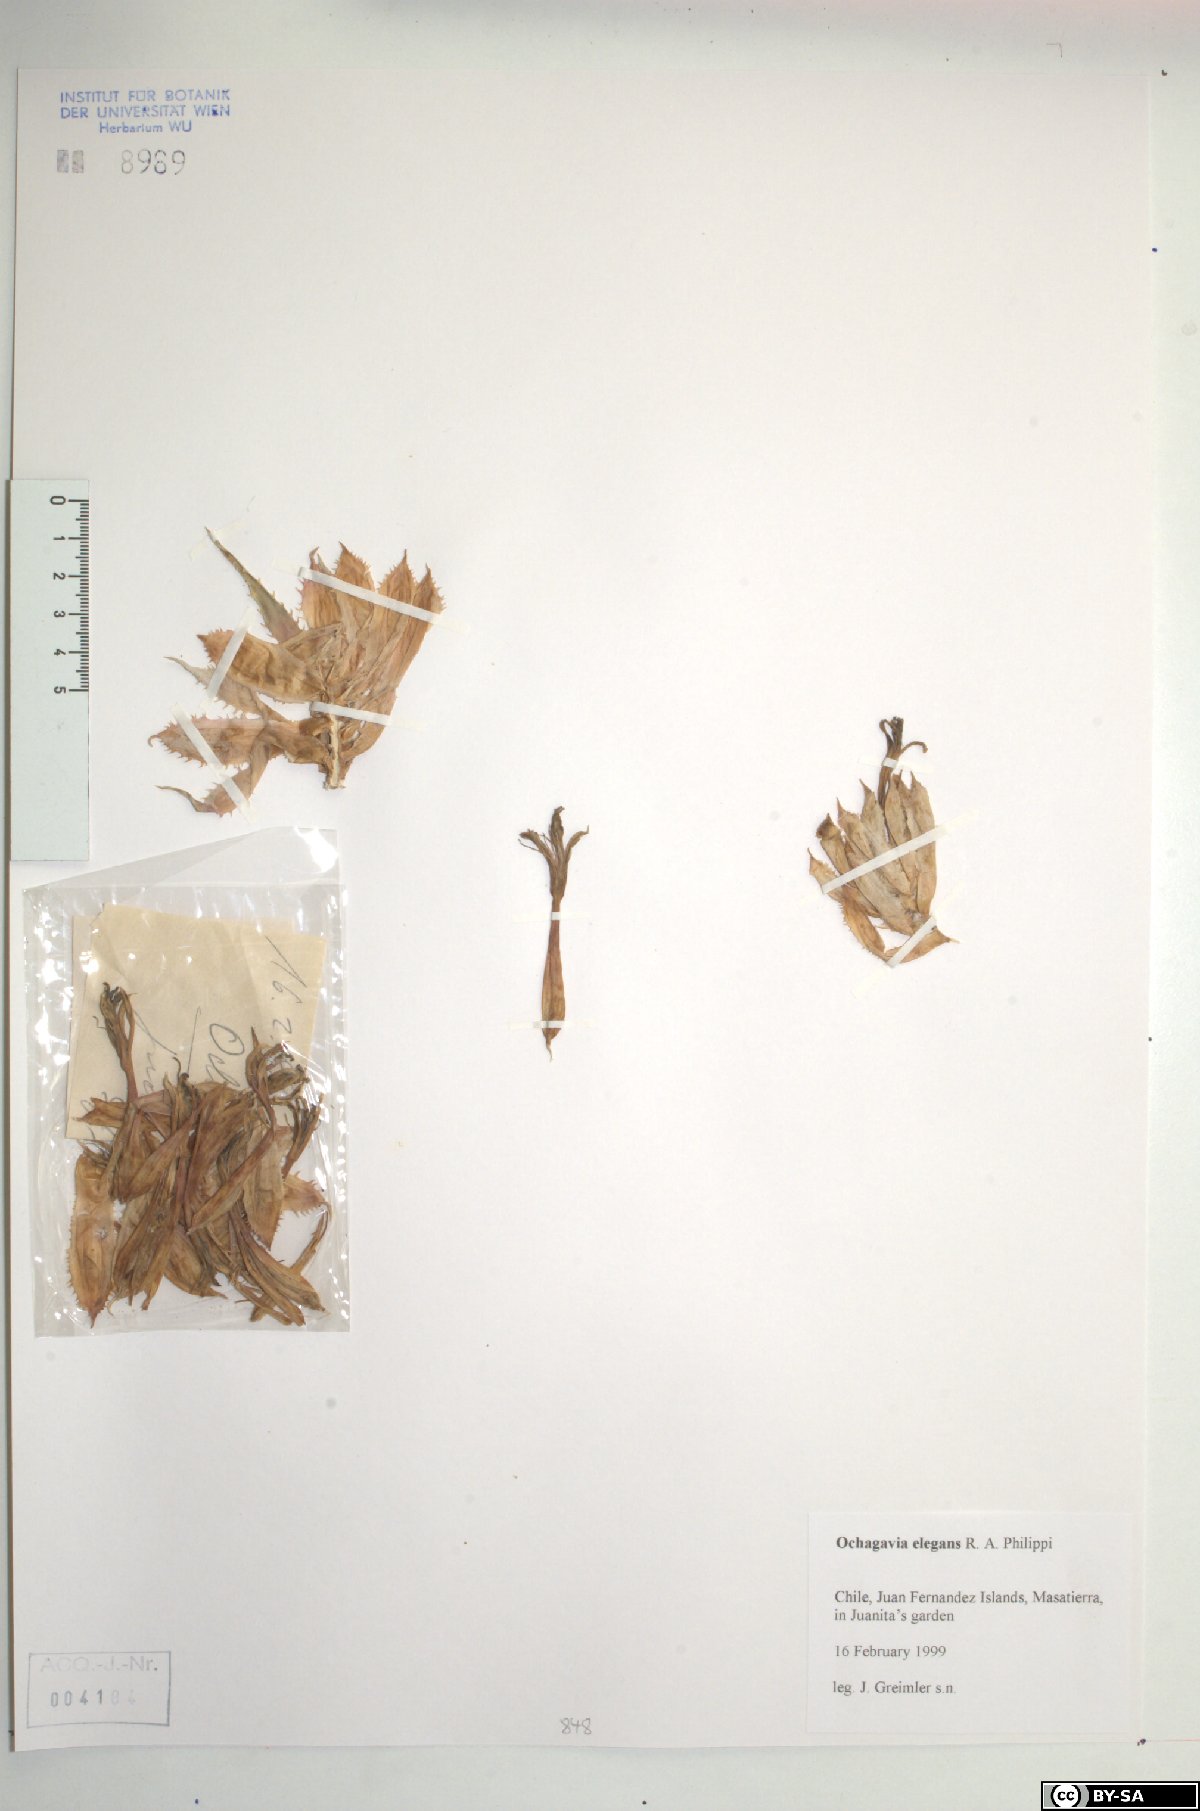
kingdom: Plantae
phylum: Tracheophyta
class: Liliopsida
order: Poales
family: Bromeliaceae
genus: Ochagavia
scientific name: Ochagavia elegans
